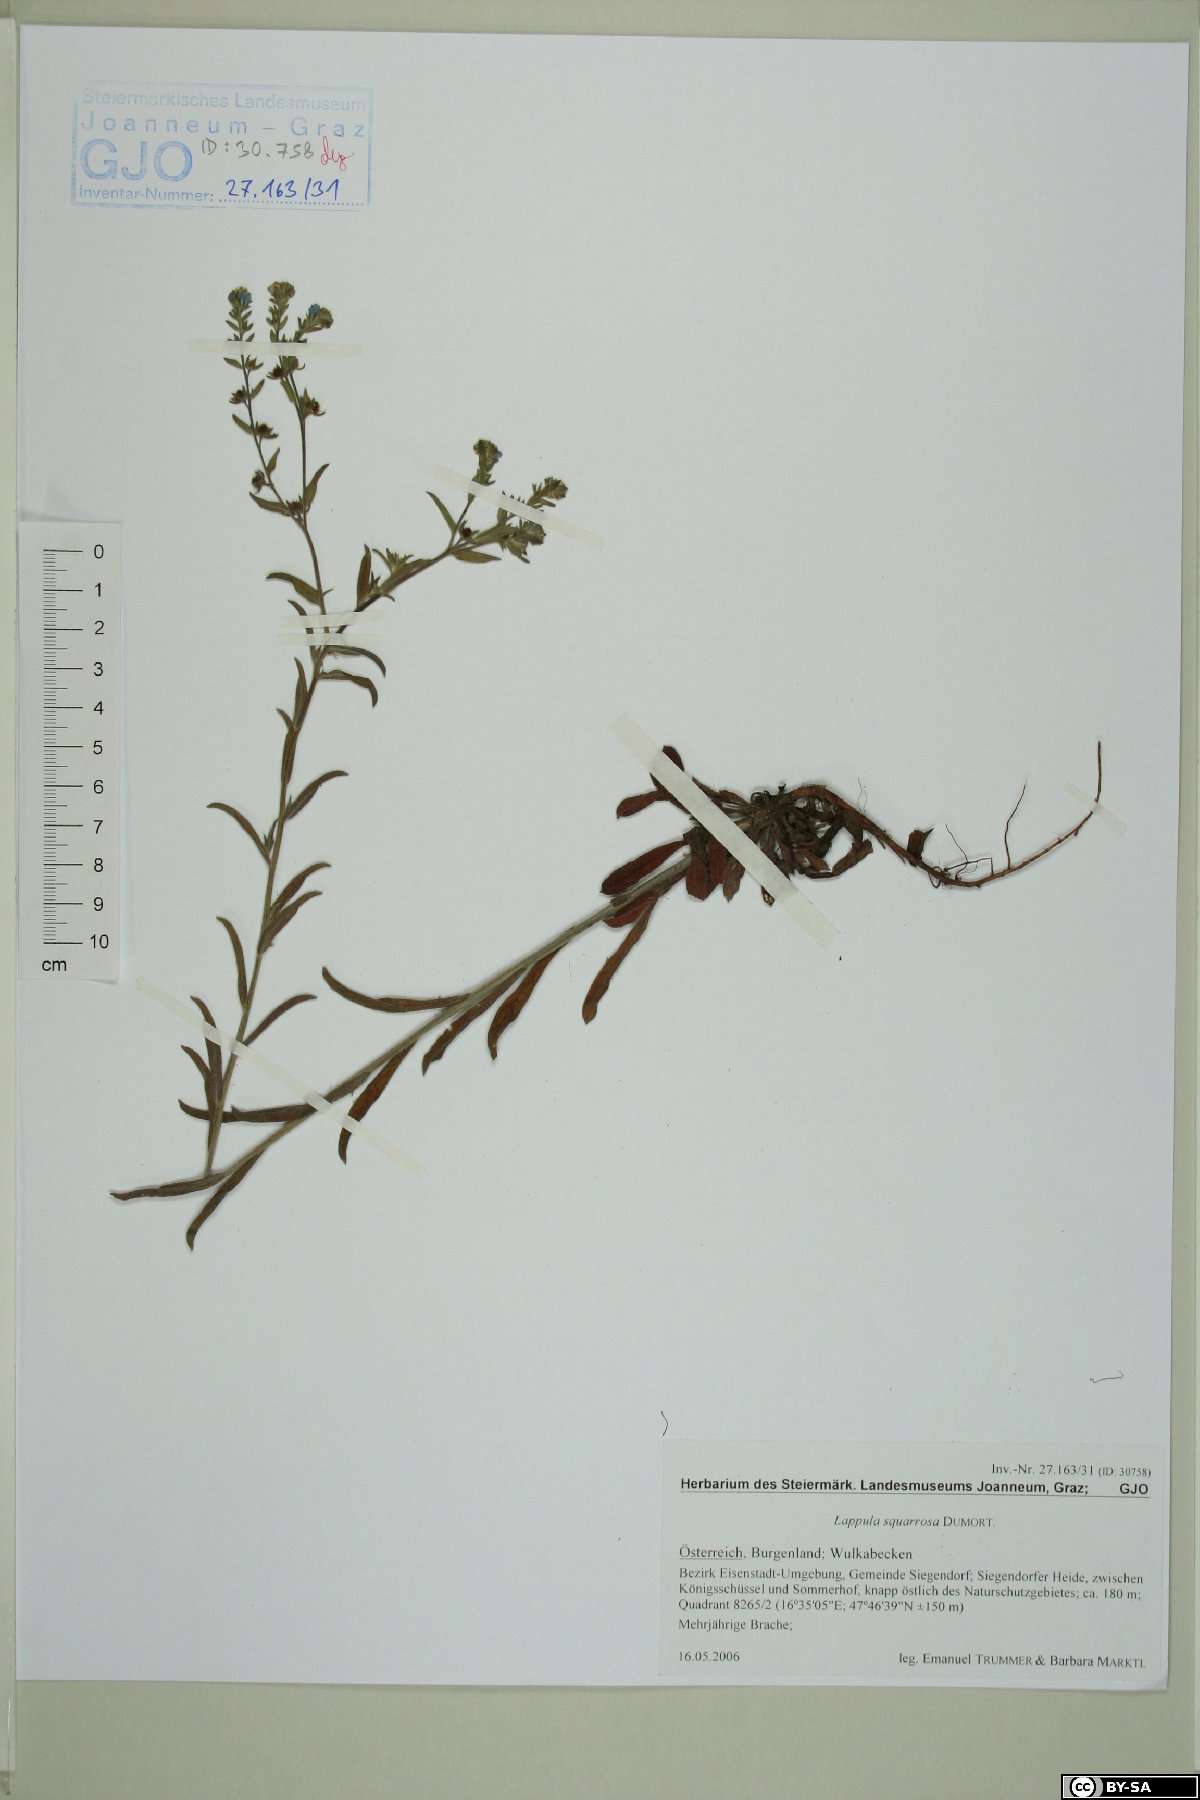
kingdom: Plantae
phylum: Tracheophyta
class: Magnoliopsida
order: Boraginales
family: Boraginaceae
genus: Lappula
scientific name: Lappula squarrosa
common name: European stickseed
